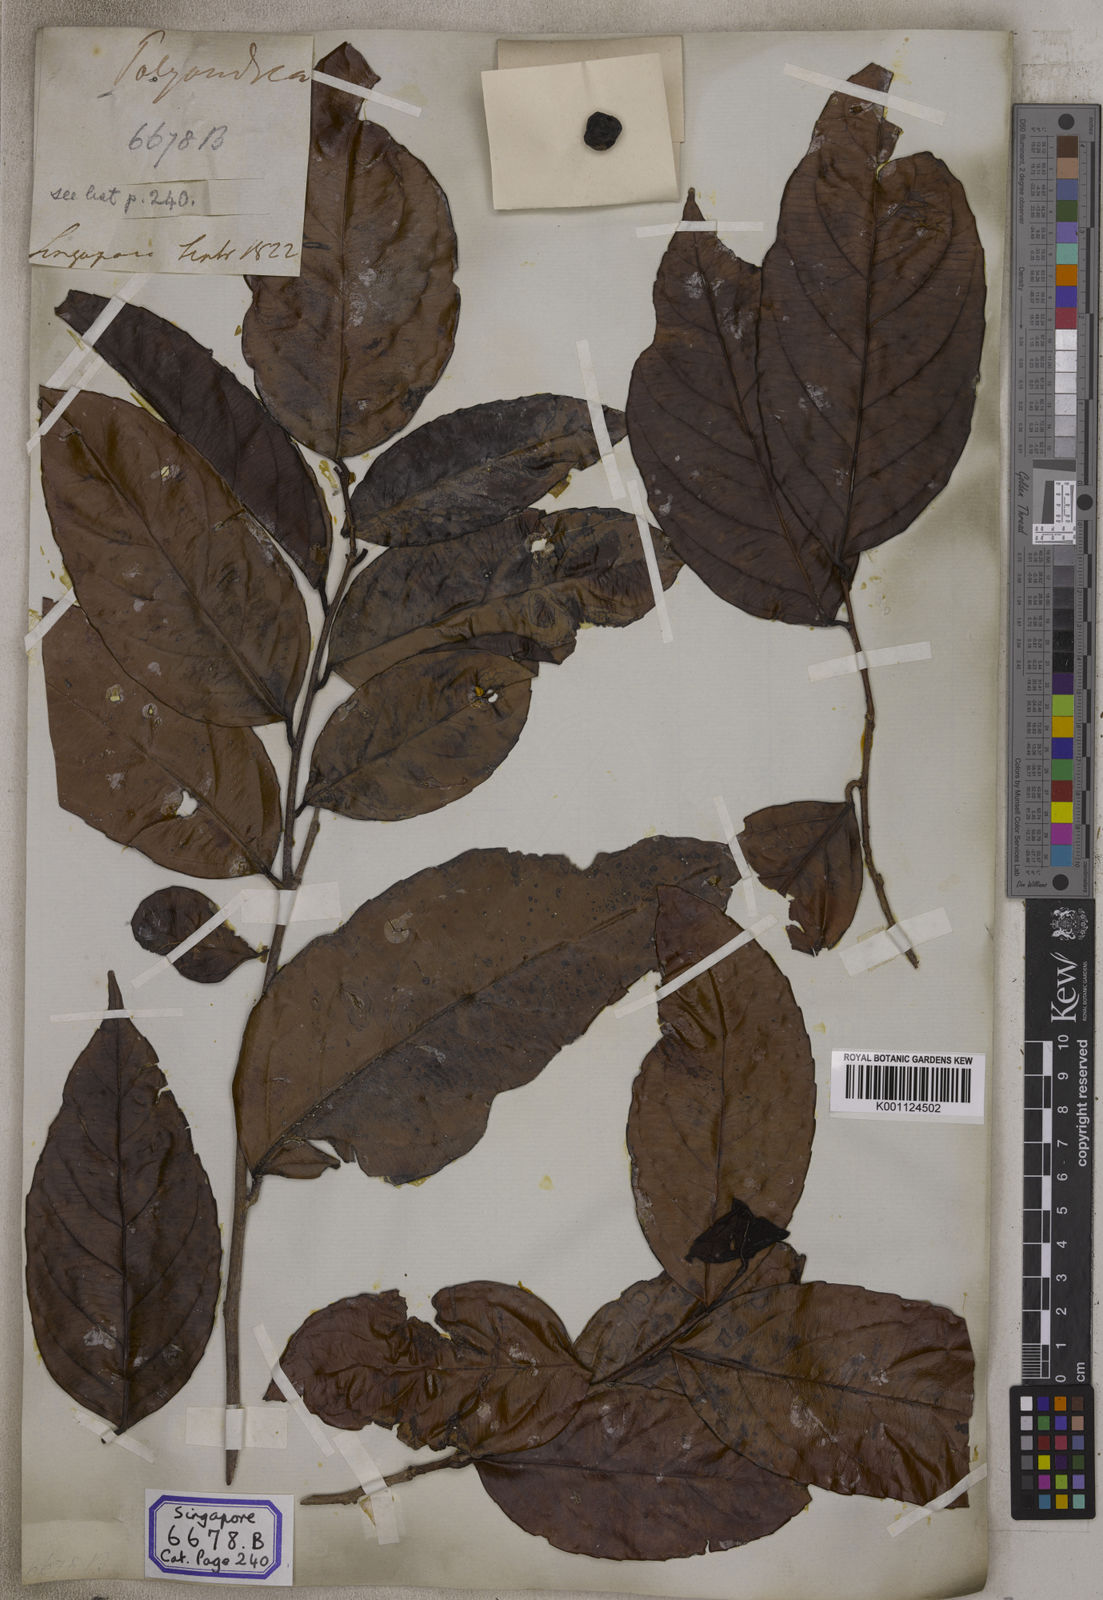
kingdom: Plantae
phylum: Tracheophyta
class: Magnoliopsida
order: Malpighiales
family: Salicaceae
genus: Flacourtia
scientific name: Flacourtia
